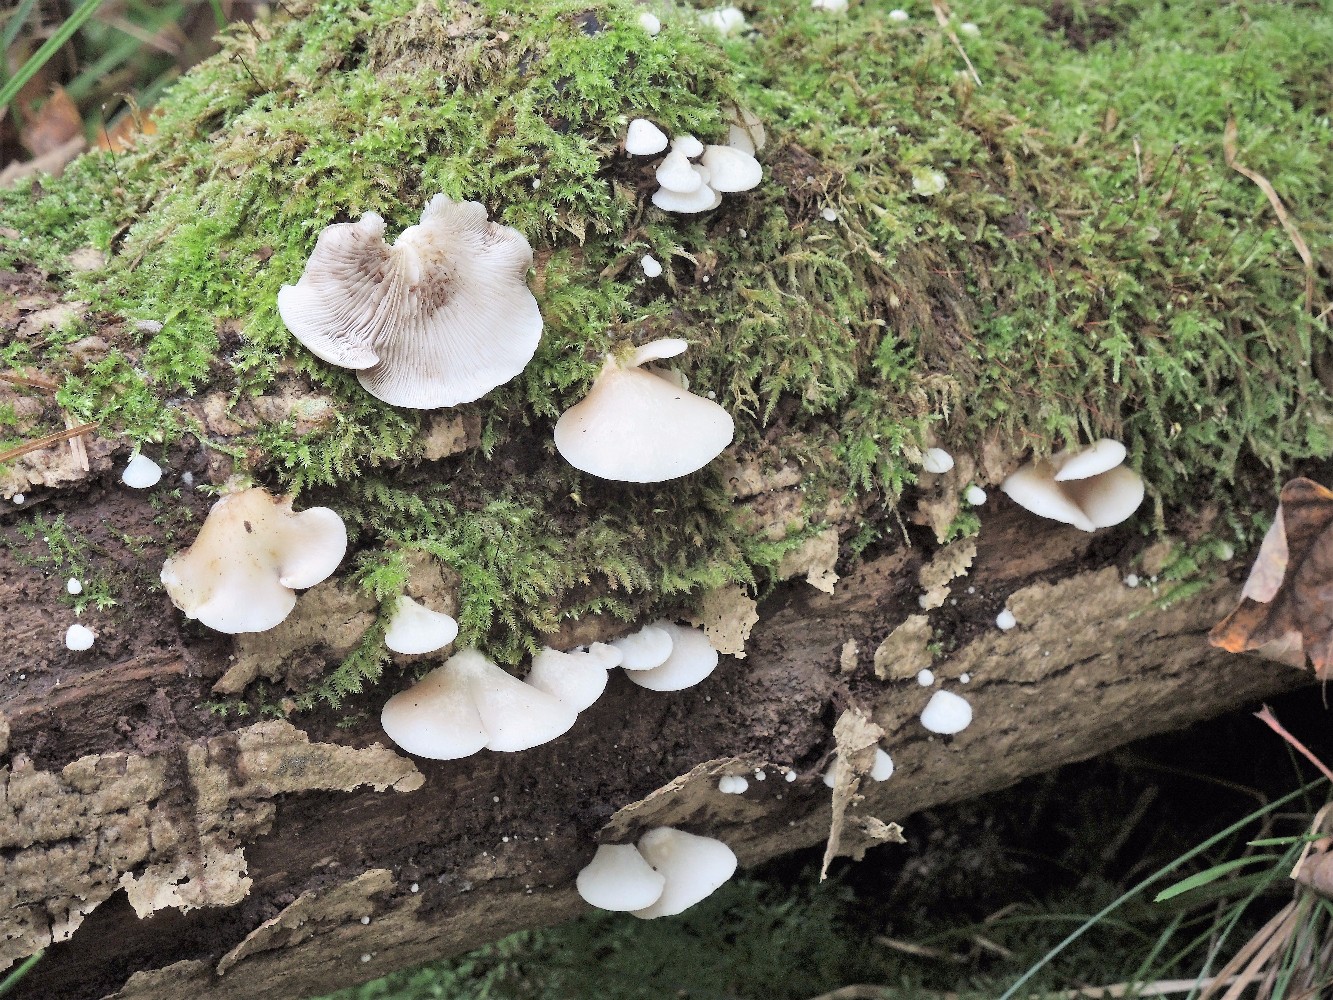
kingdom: Fungi
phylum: Basidiomycota
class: Agaricomycetes
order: Agaricales
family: Crepidotaceae
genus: Crepidotus
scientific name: Crepidotus mollis
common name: blød muslingesvamp
